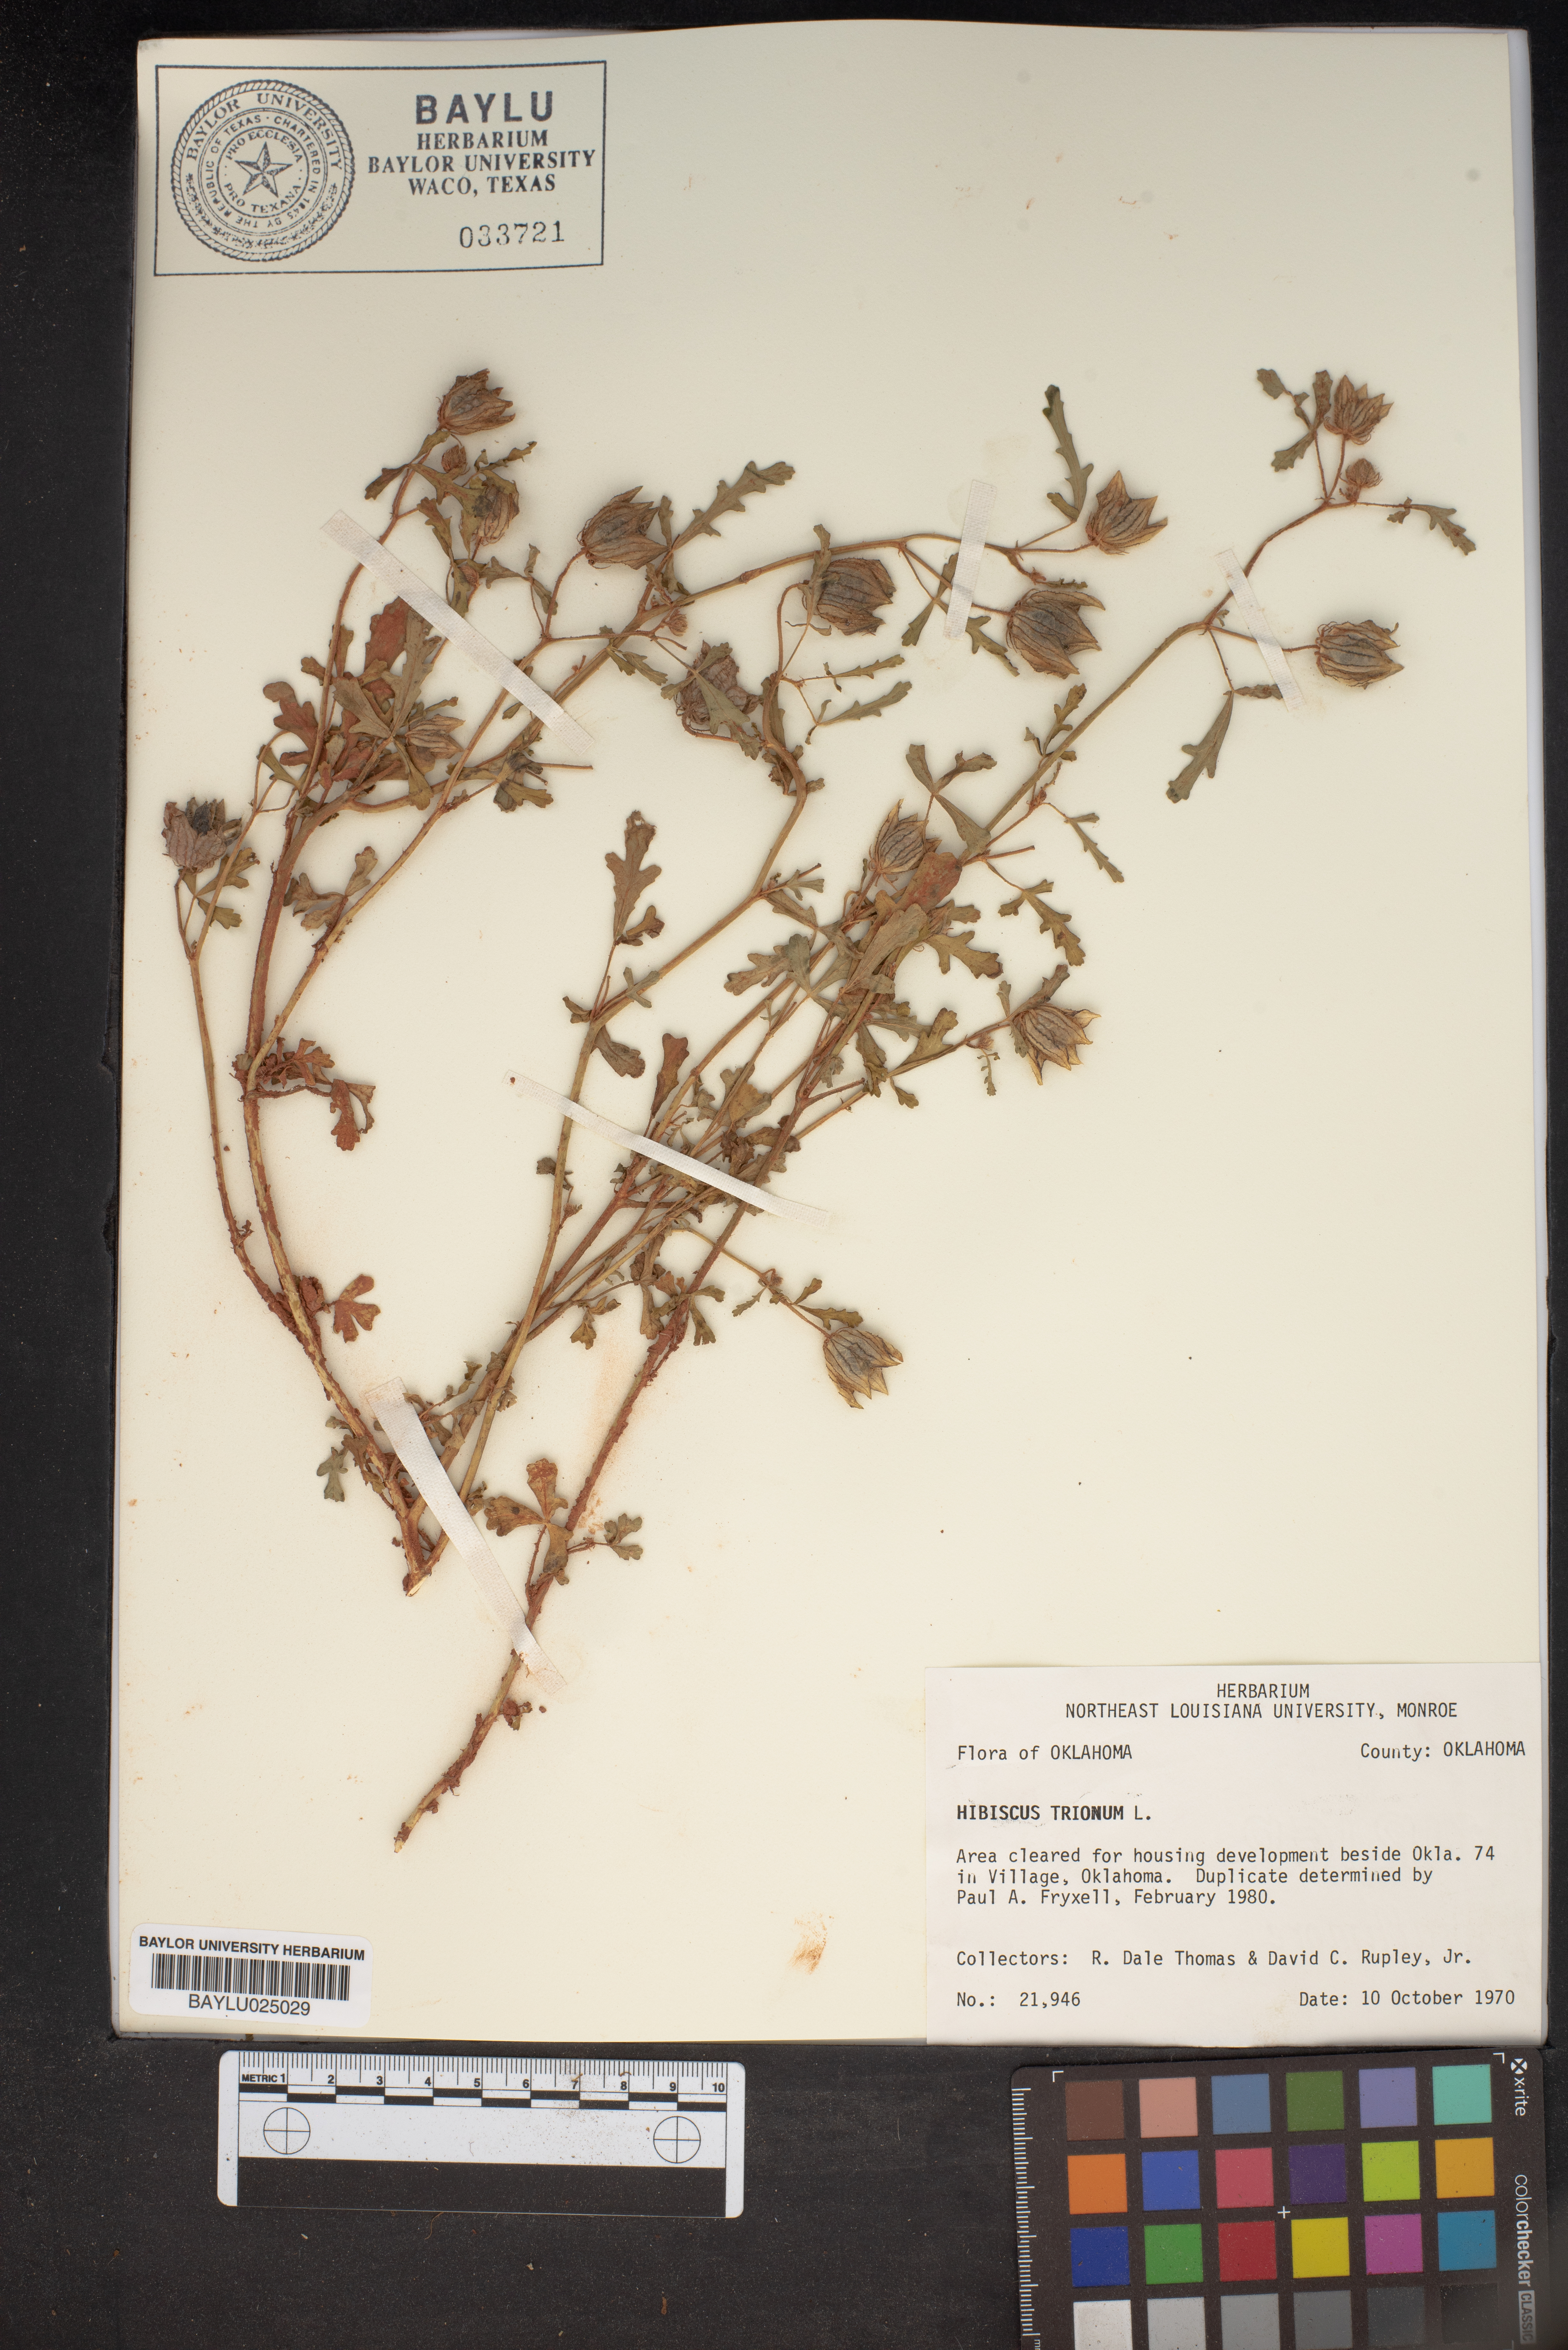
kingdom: Plantae
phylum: Tracheophyta
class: Magnoliopsida
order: Malvales
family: Malvaceae
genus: Hibiscus
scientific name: Hibiscus trionum
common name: Bladder ketmia
